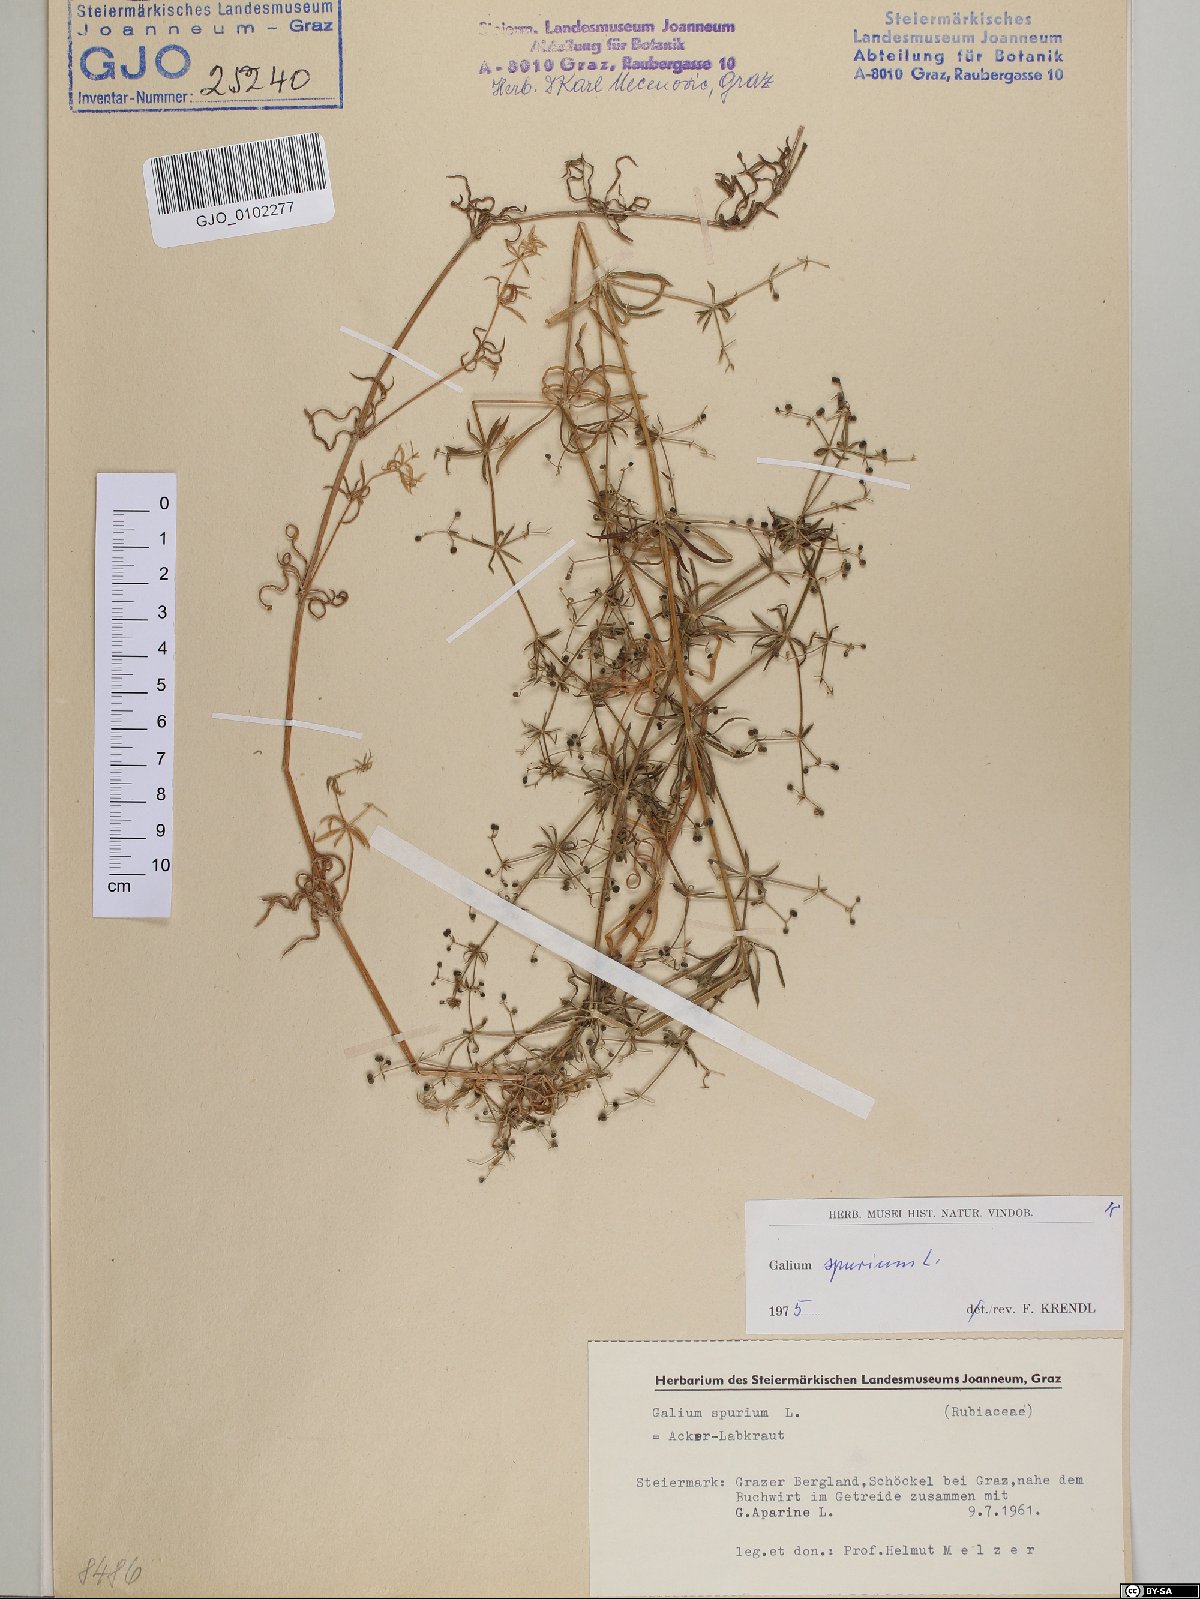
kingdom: Plantae
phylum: Tracheophyta
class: Magnoliopsida
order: Gentianales
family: Rubiaceae
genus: Galium
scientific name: Galium spurium
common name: False cleavers
